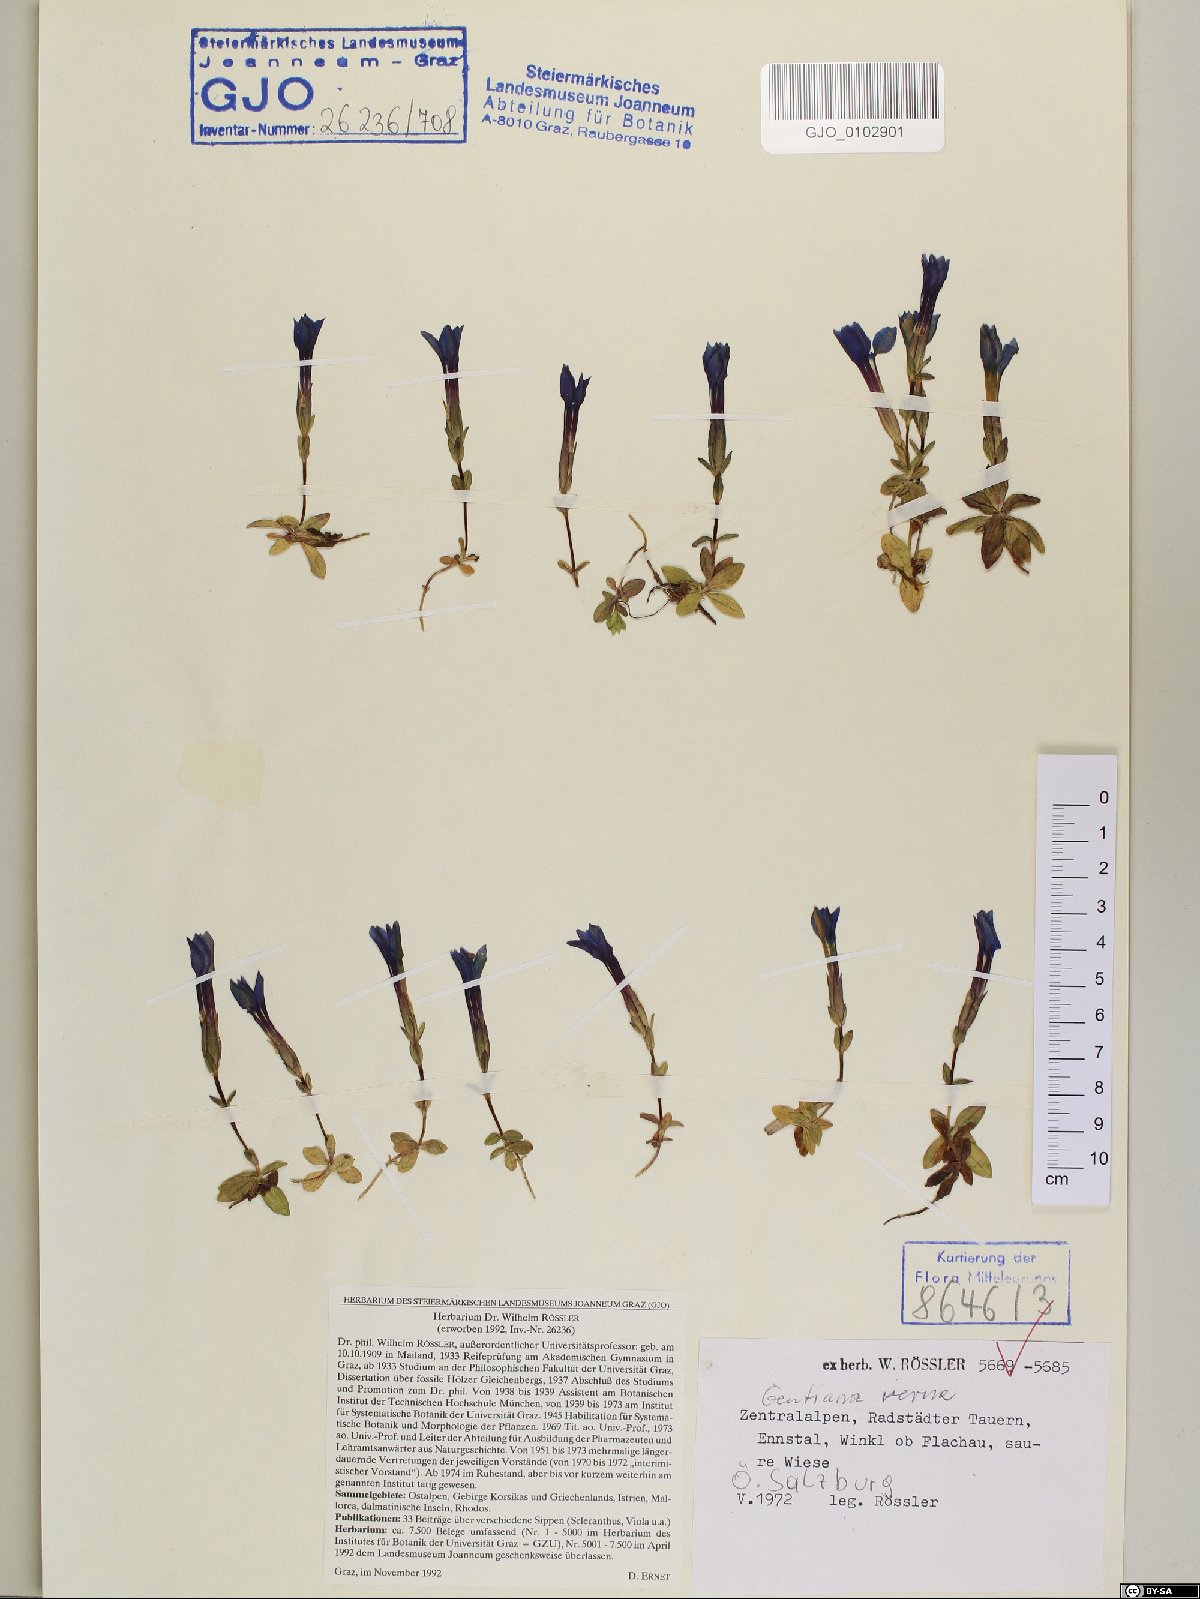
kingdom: Plantae
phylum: Tracheophyta
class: Magnoliopsida
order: Gentianales
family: Gentianaceae
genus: Gentiana
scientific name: Gentiana verna
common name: Spring gentian
